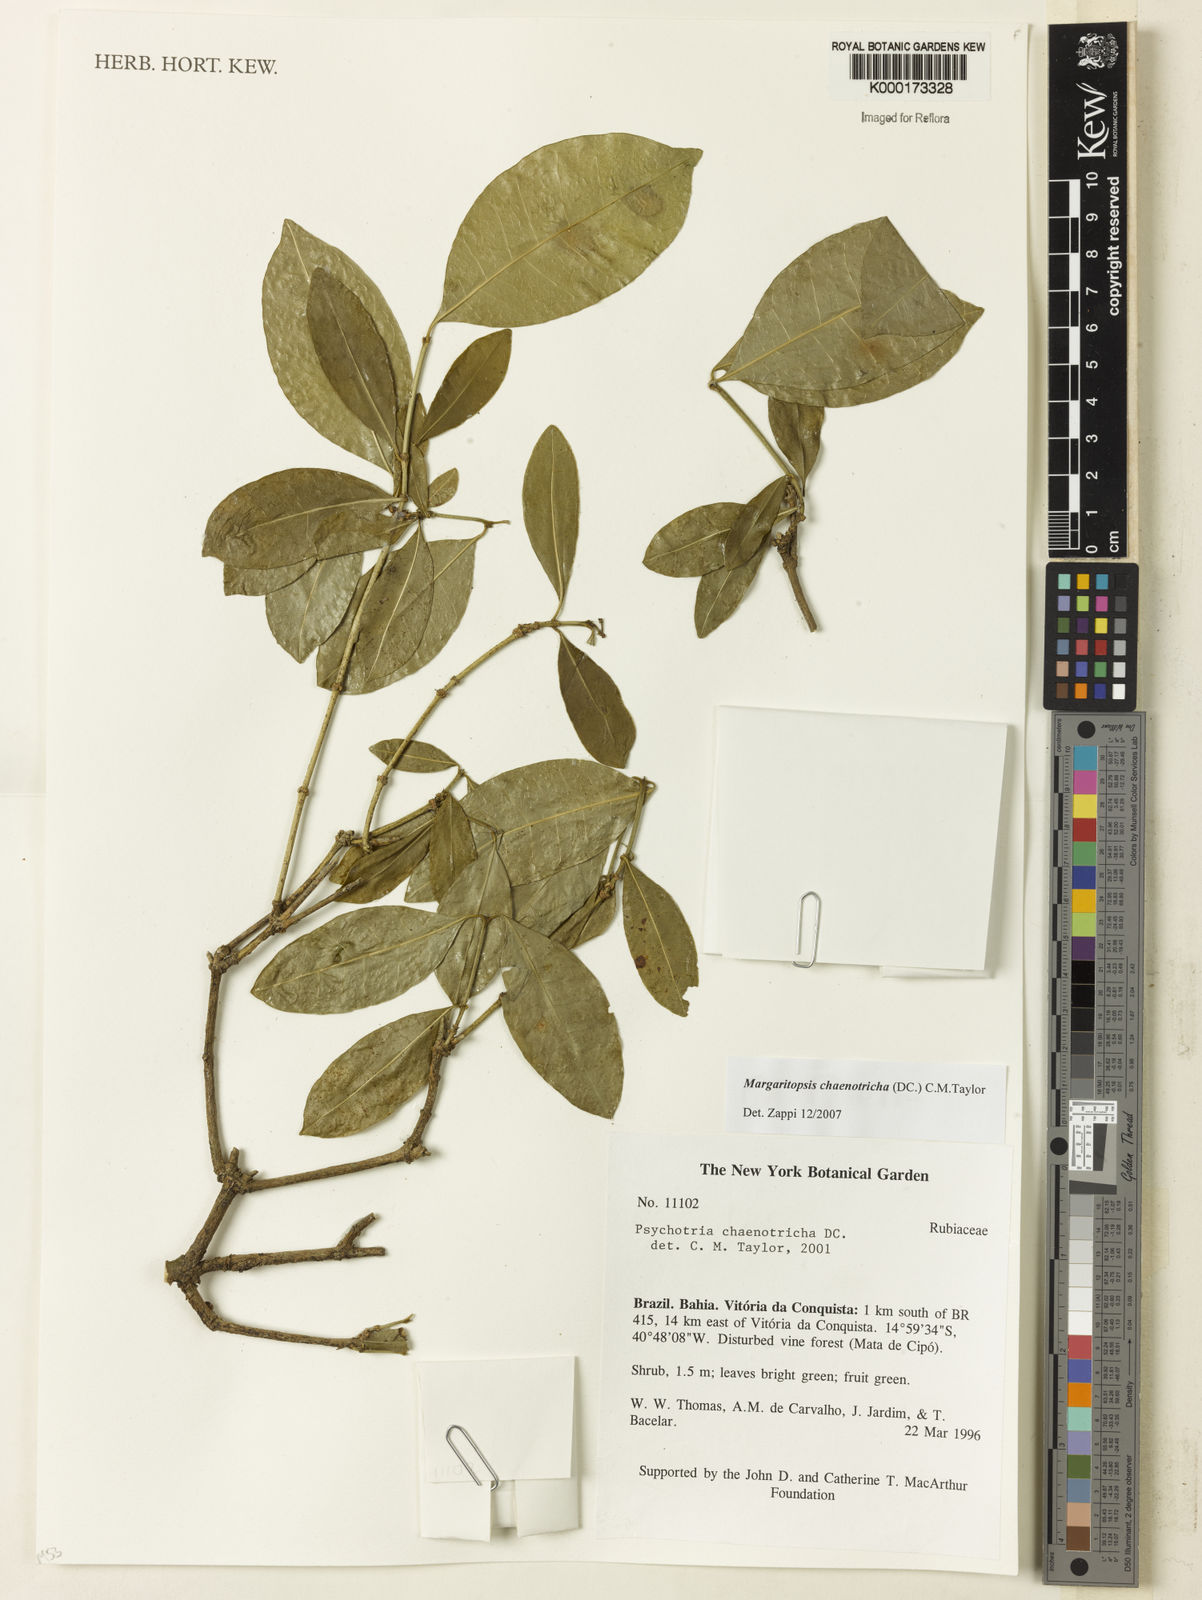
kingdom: Plantae
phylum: Tracheophyta
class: Magnoliopsida
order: Gentianales
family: Rubiaceae
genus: Eumachia
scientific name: Eumachia chaenotricha
